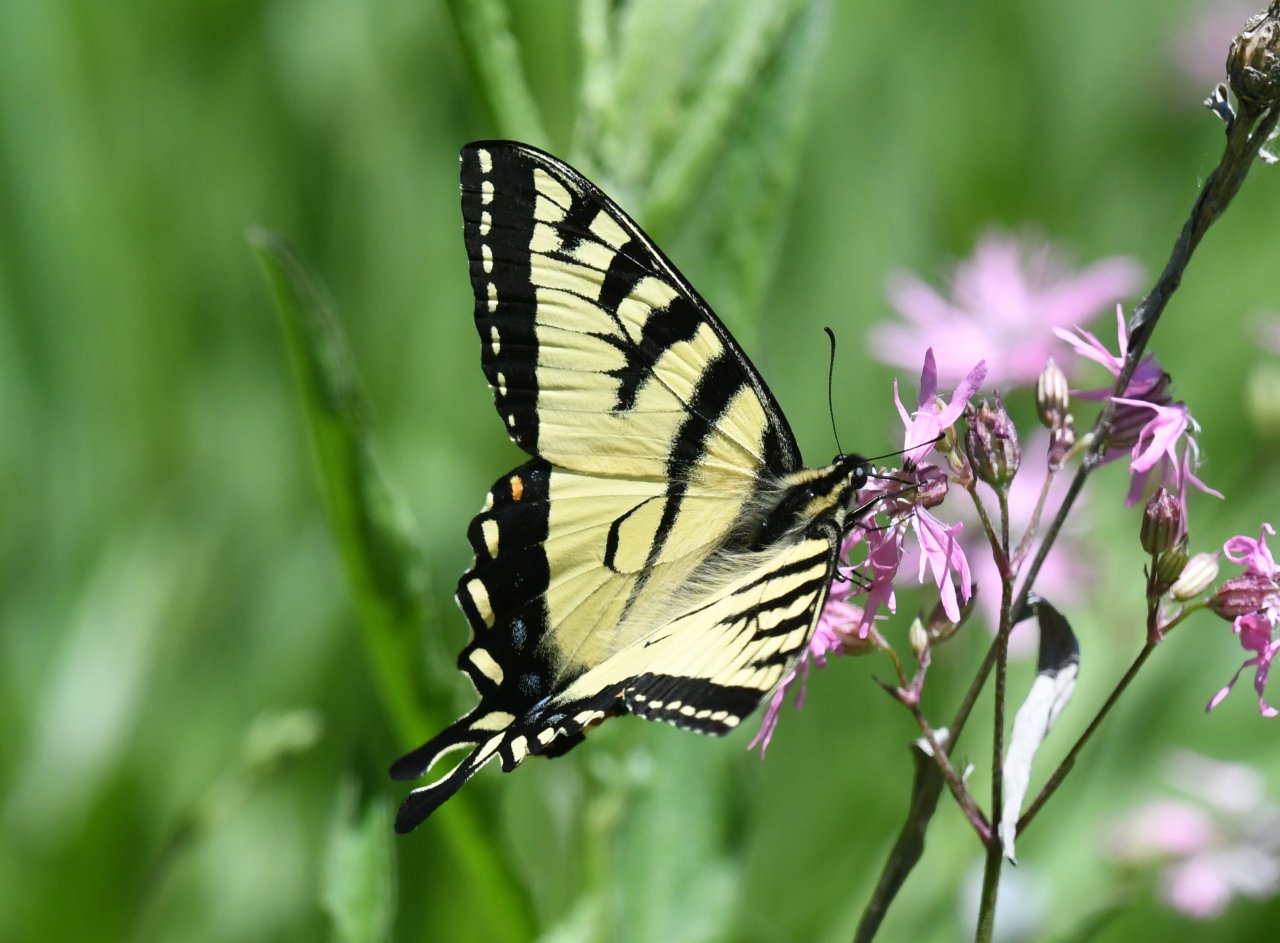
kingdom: Animalia
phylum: Arthropoda
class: Insecta
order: Lepidoptera
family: Papilionidae
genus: Pterourus
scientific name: Pterourus canadensis
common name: Canadian Tiger Swallowtail
